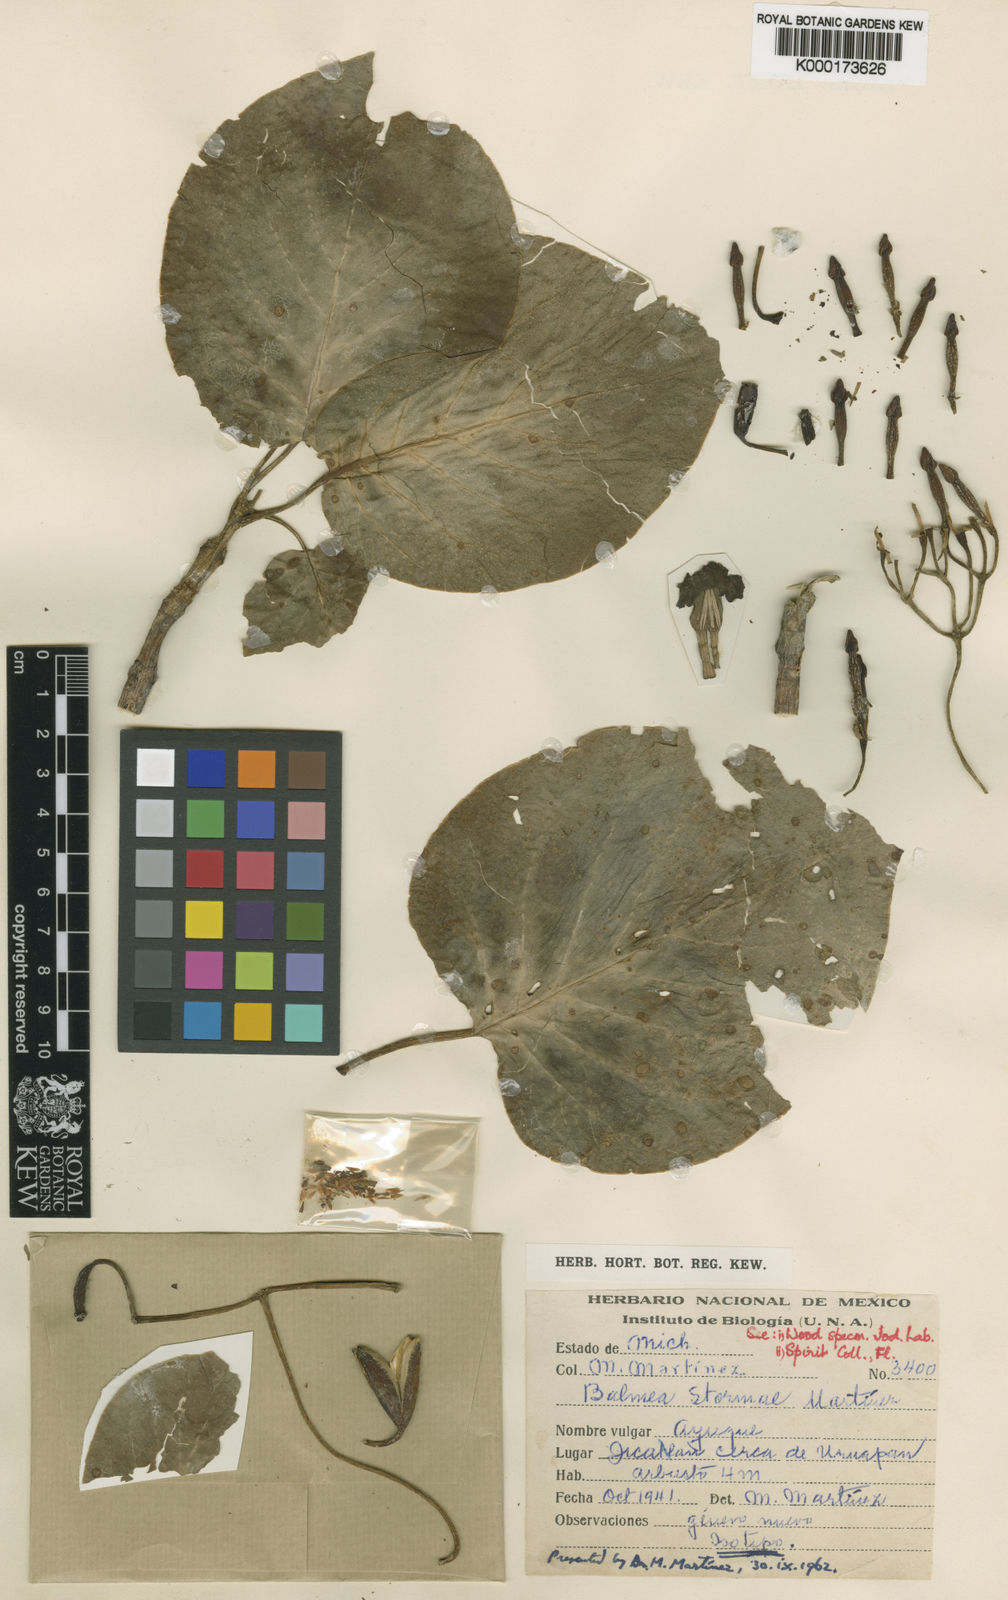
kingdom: Plantae
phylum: Tracheophyta
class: Magnoliopsida
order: Gentianales
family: Rubiaceae
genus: Balmea
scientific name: Balmea
